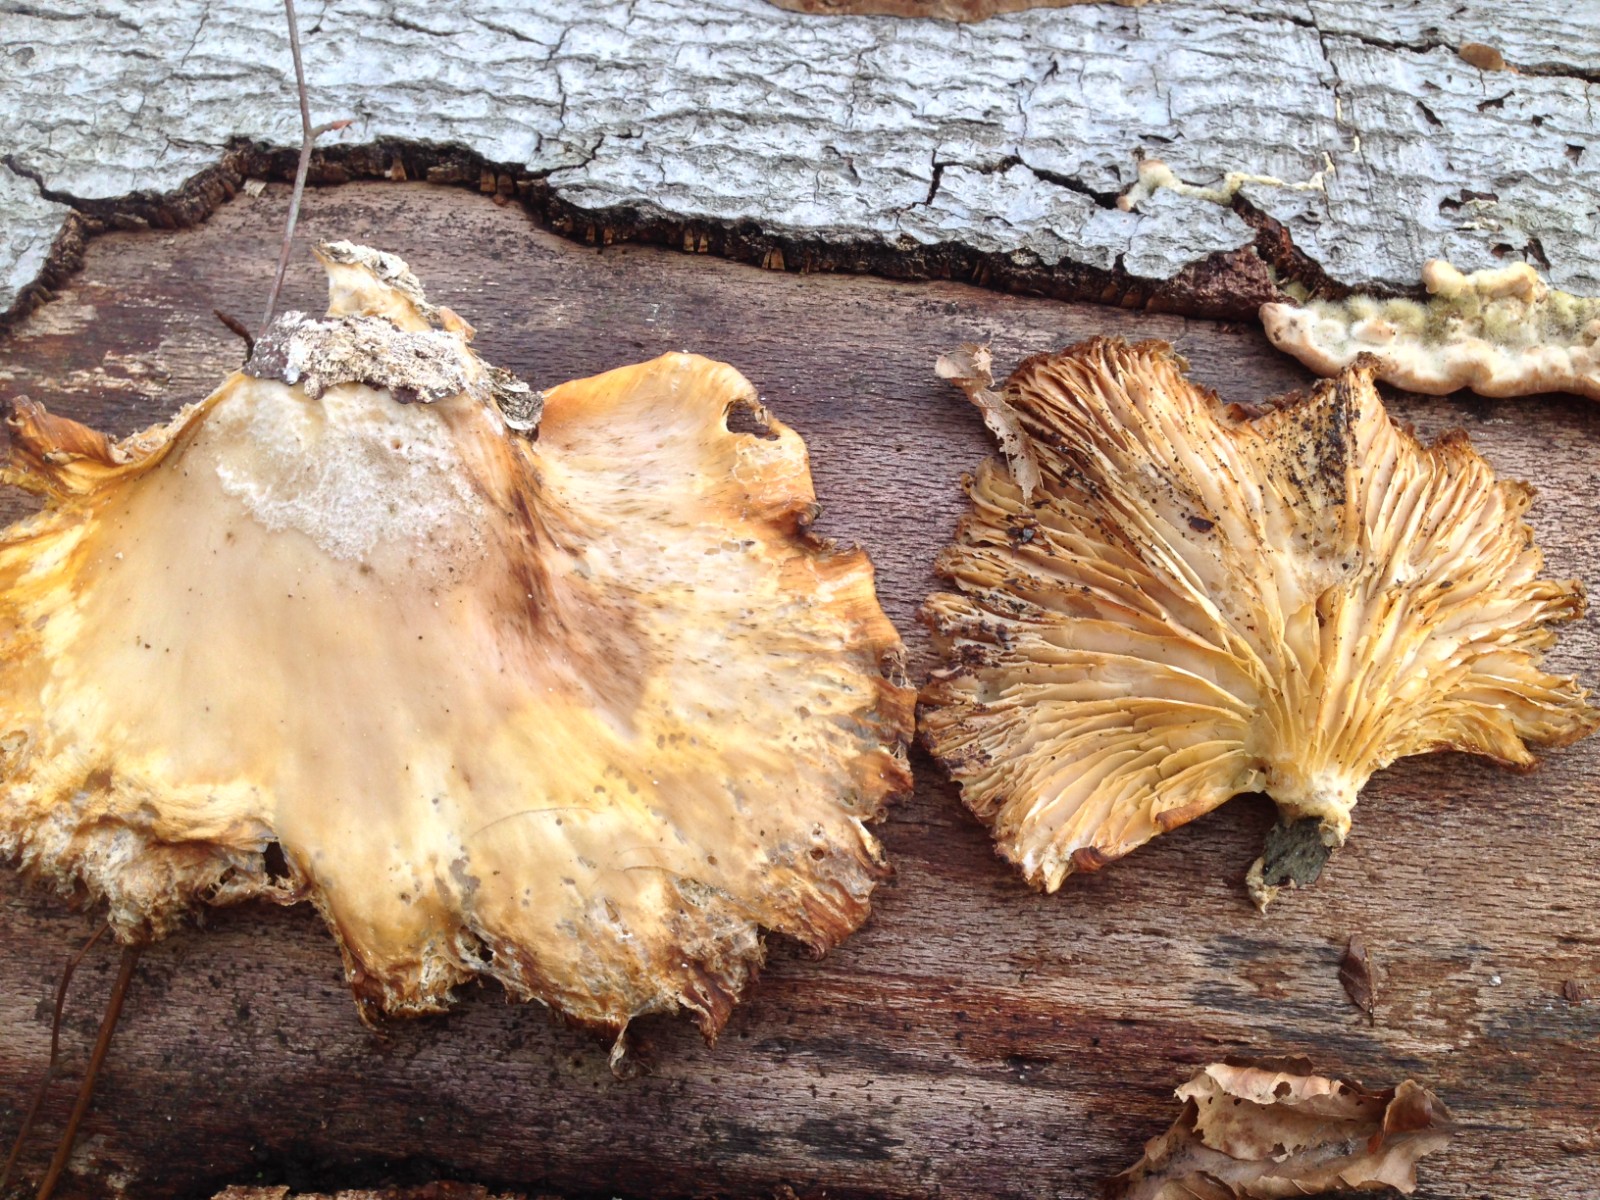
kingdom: Fungi
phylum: Basidiomycota
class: Agaricomycetes
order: Agaricales
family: Pleurotaceae
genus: Pleurotus
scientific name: Pleurotus ostreatus
